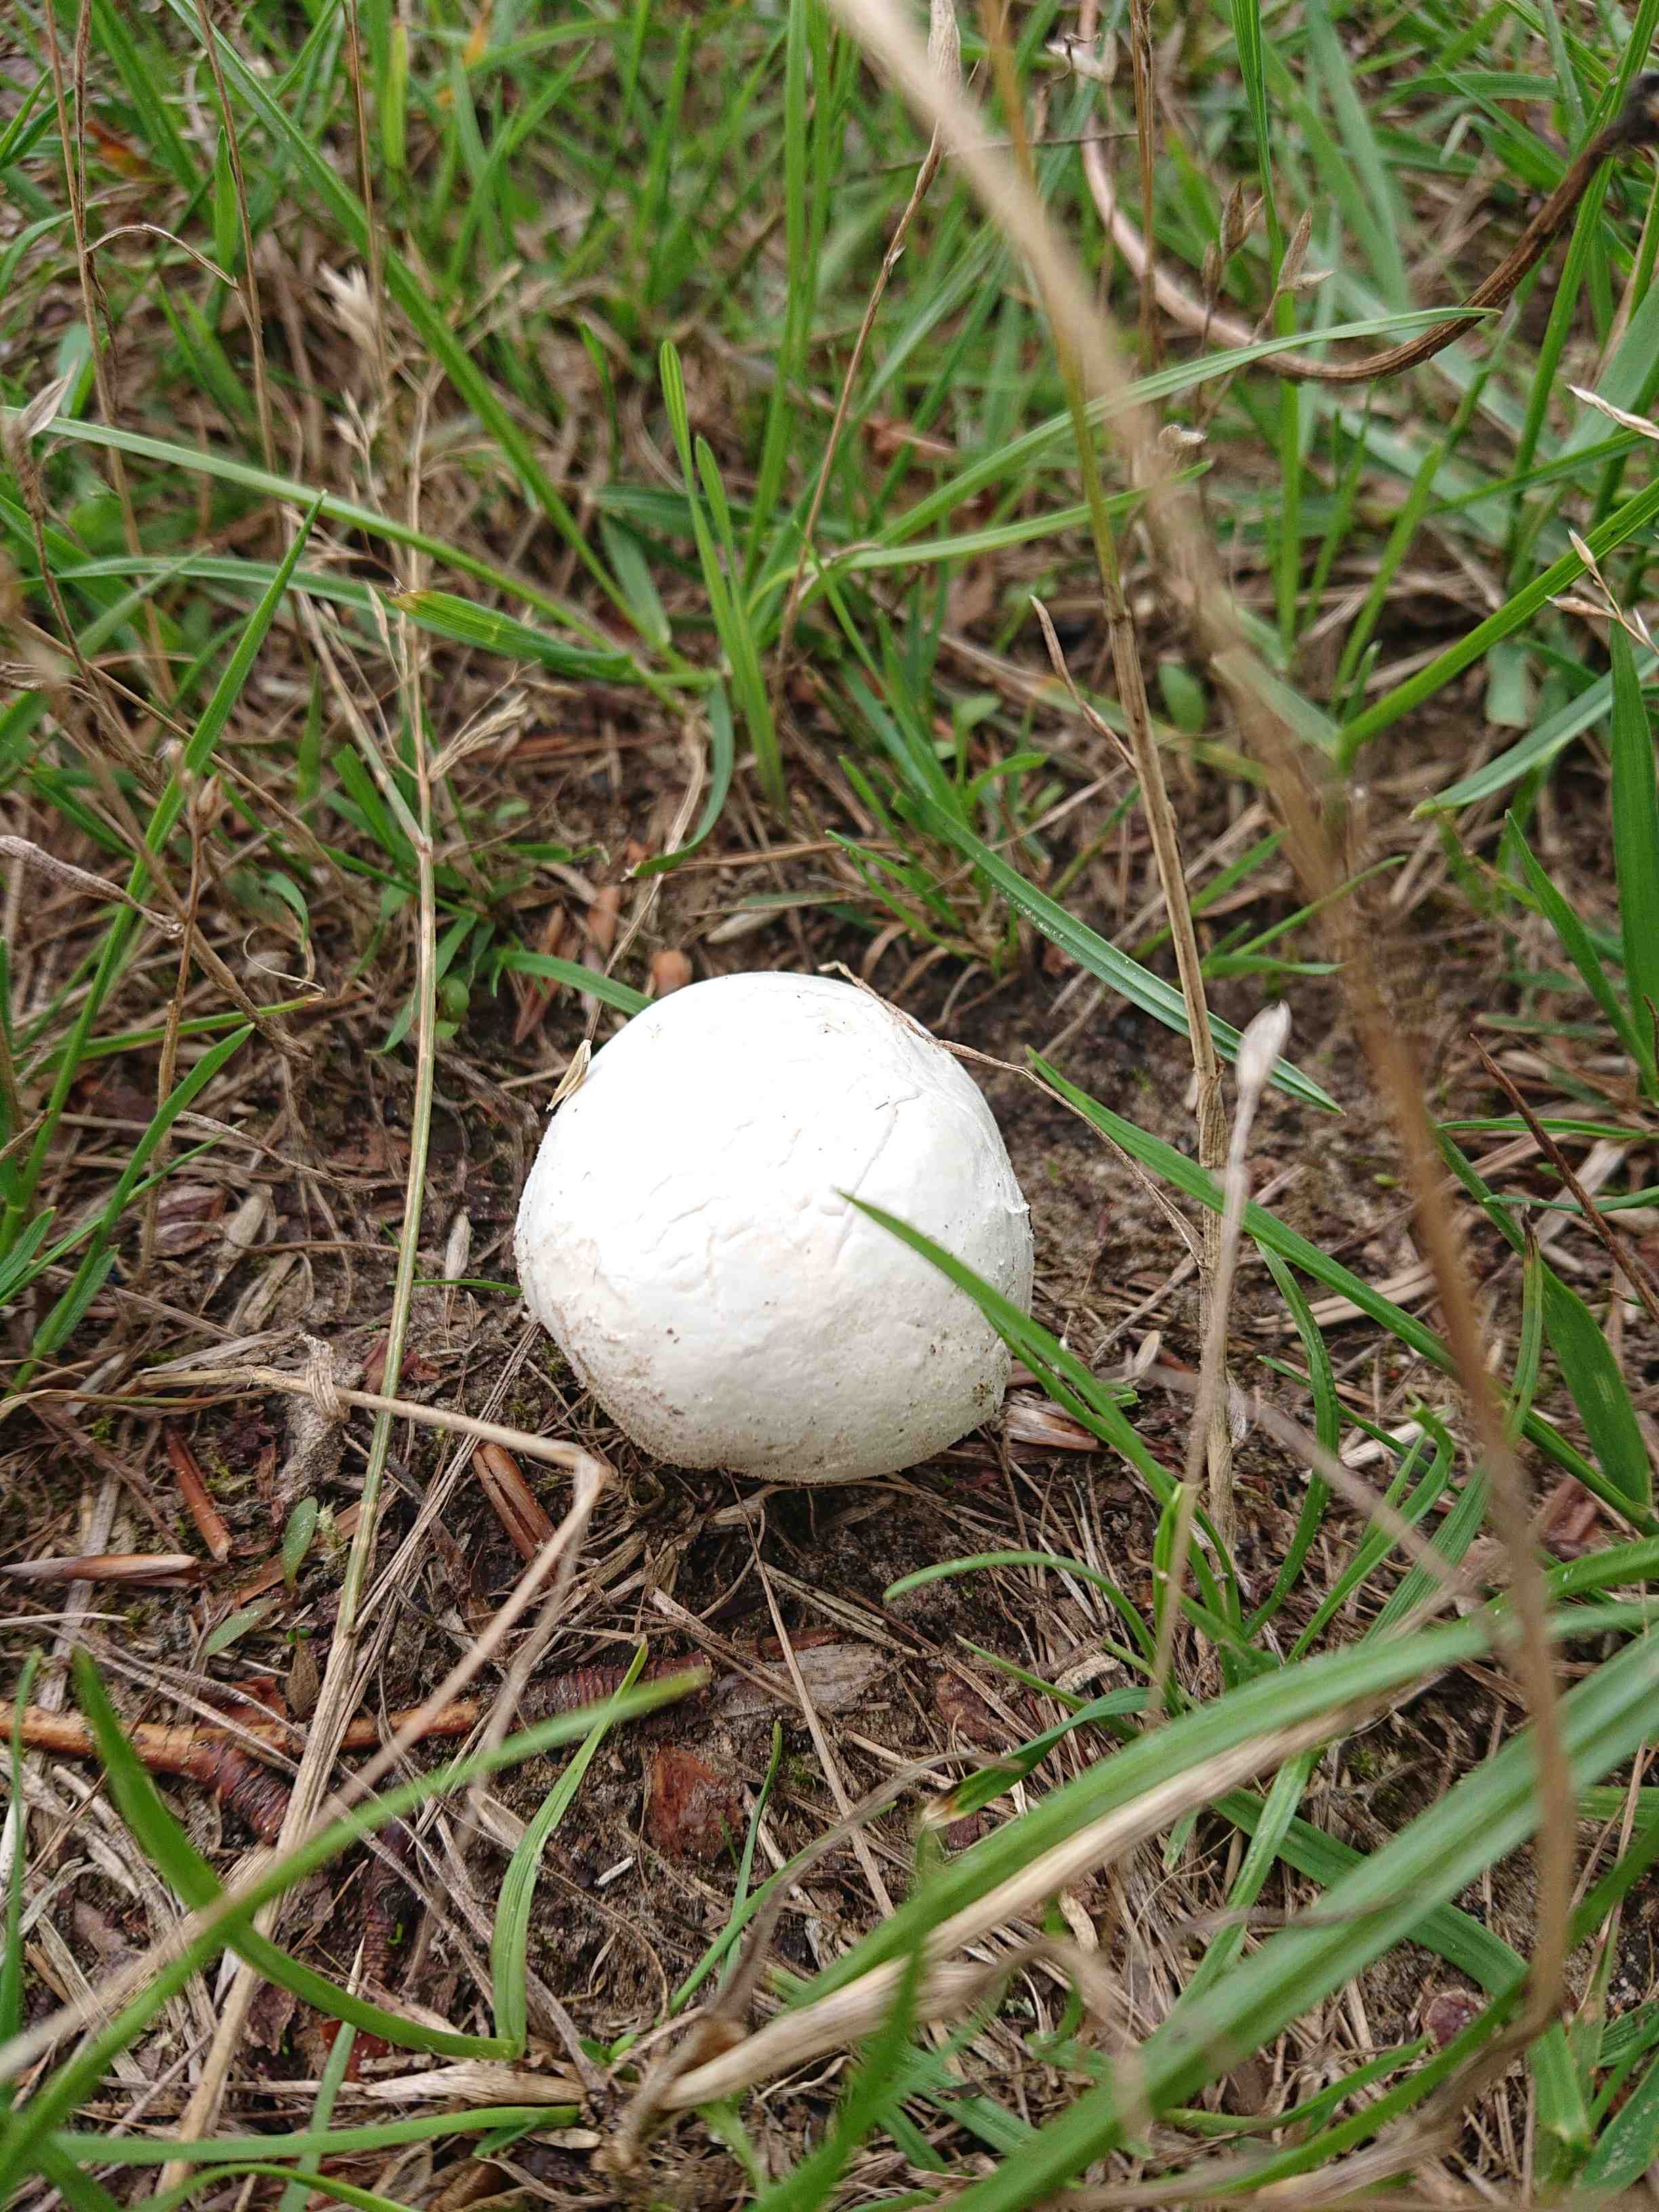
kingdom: Fungi
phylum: Basidiomycota
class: Agaricomycetes
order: Agaricales
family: Lycoperdaceae
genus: Bovista
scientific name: Bovista
